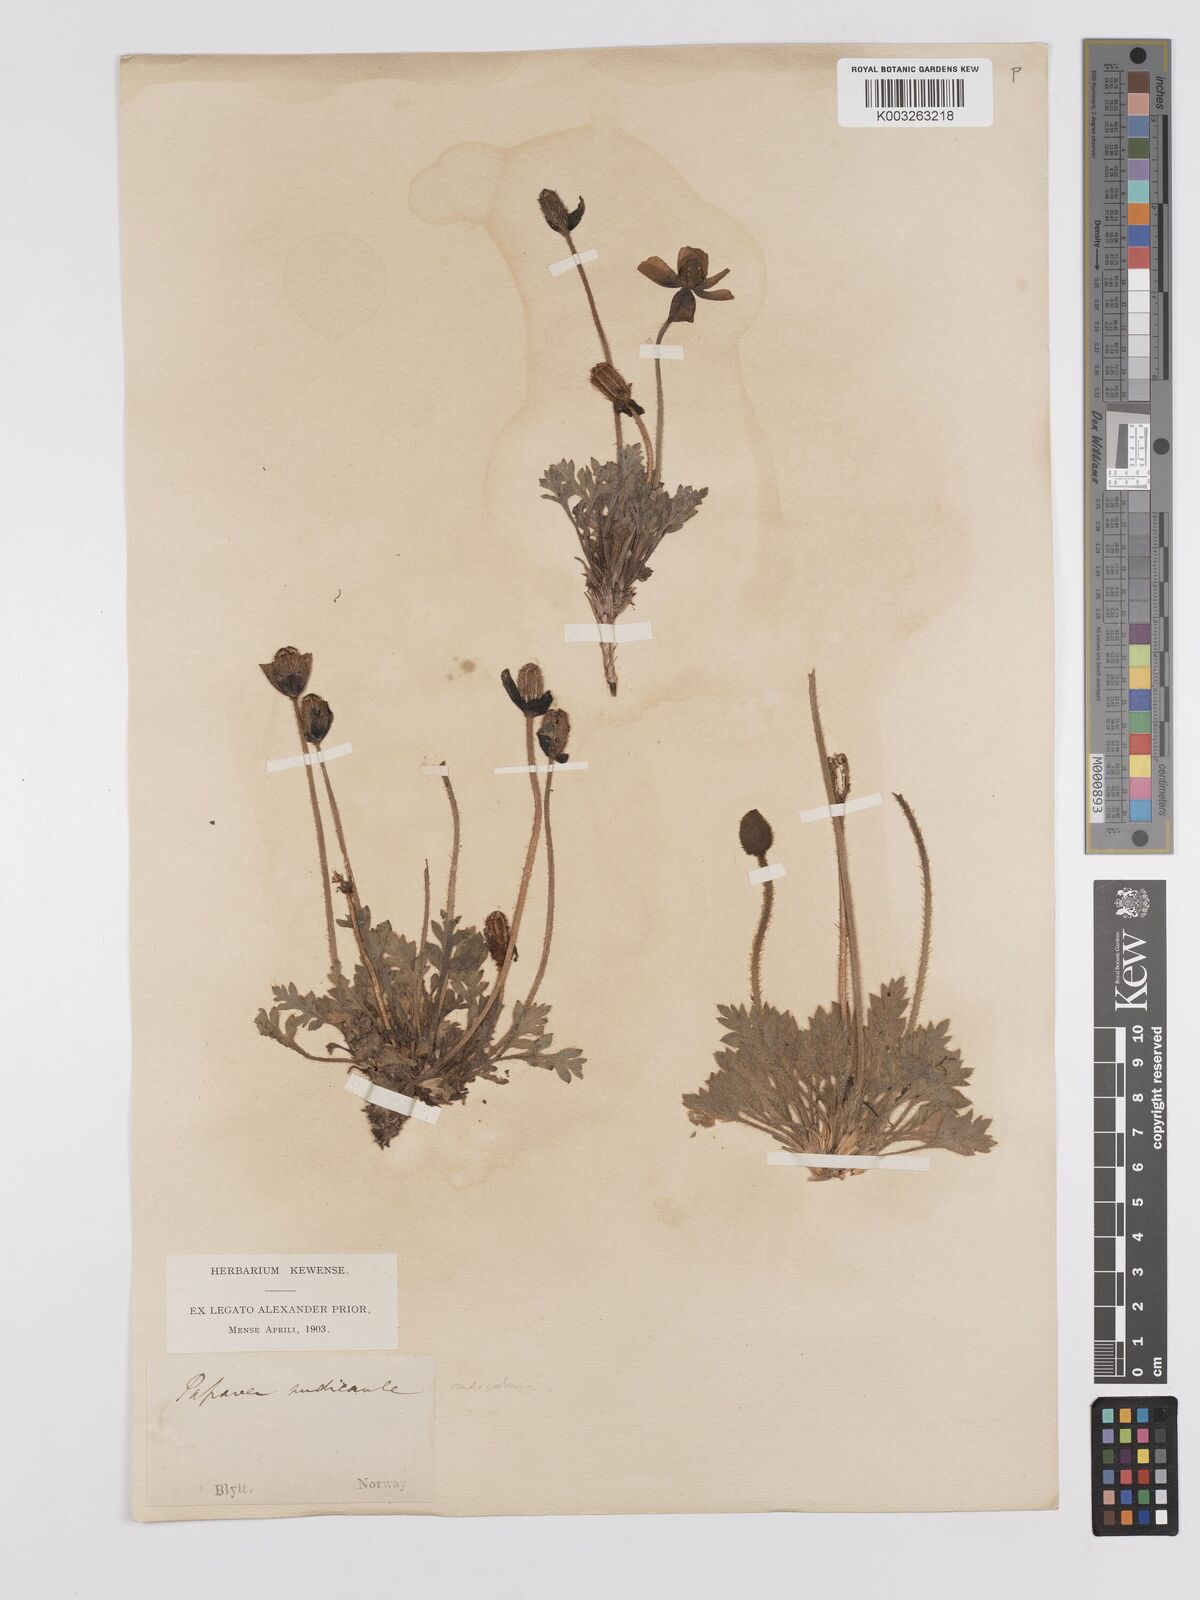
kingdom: Plantae
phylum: Tracheophyta
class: Magnoliopsida
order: Ranunculales
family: Papaveraceae
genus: Papaver
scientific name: Papaver radicatum
